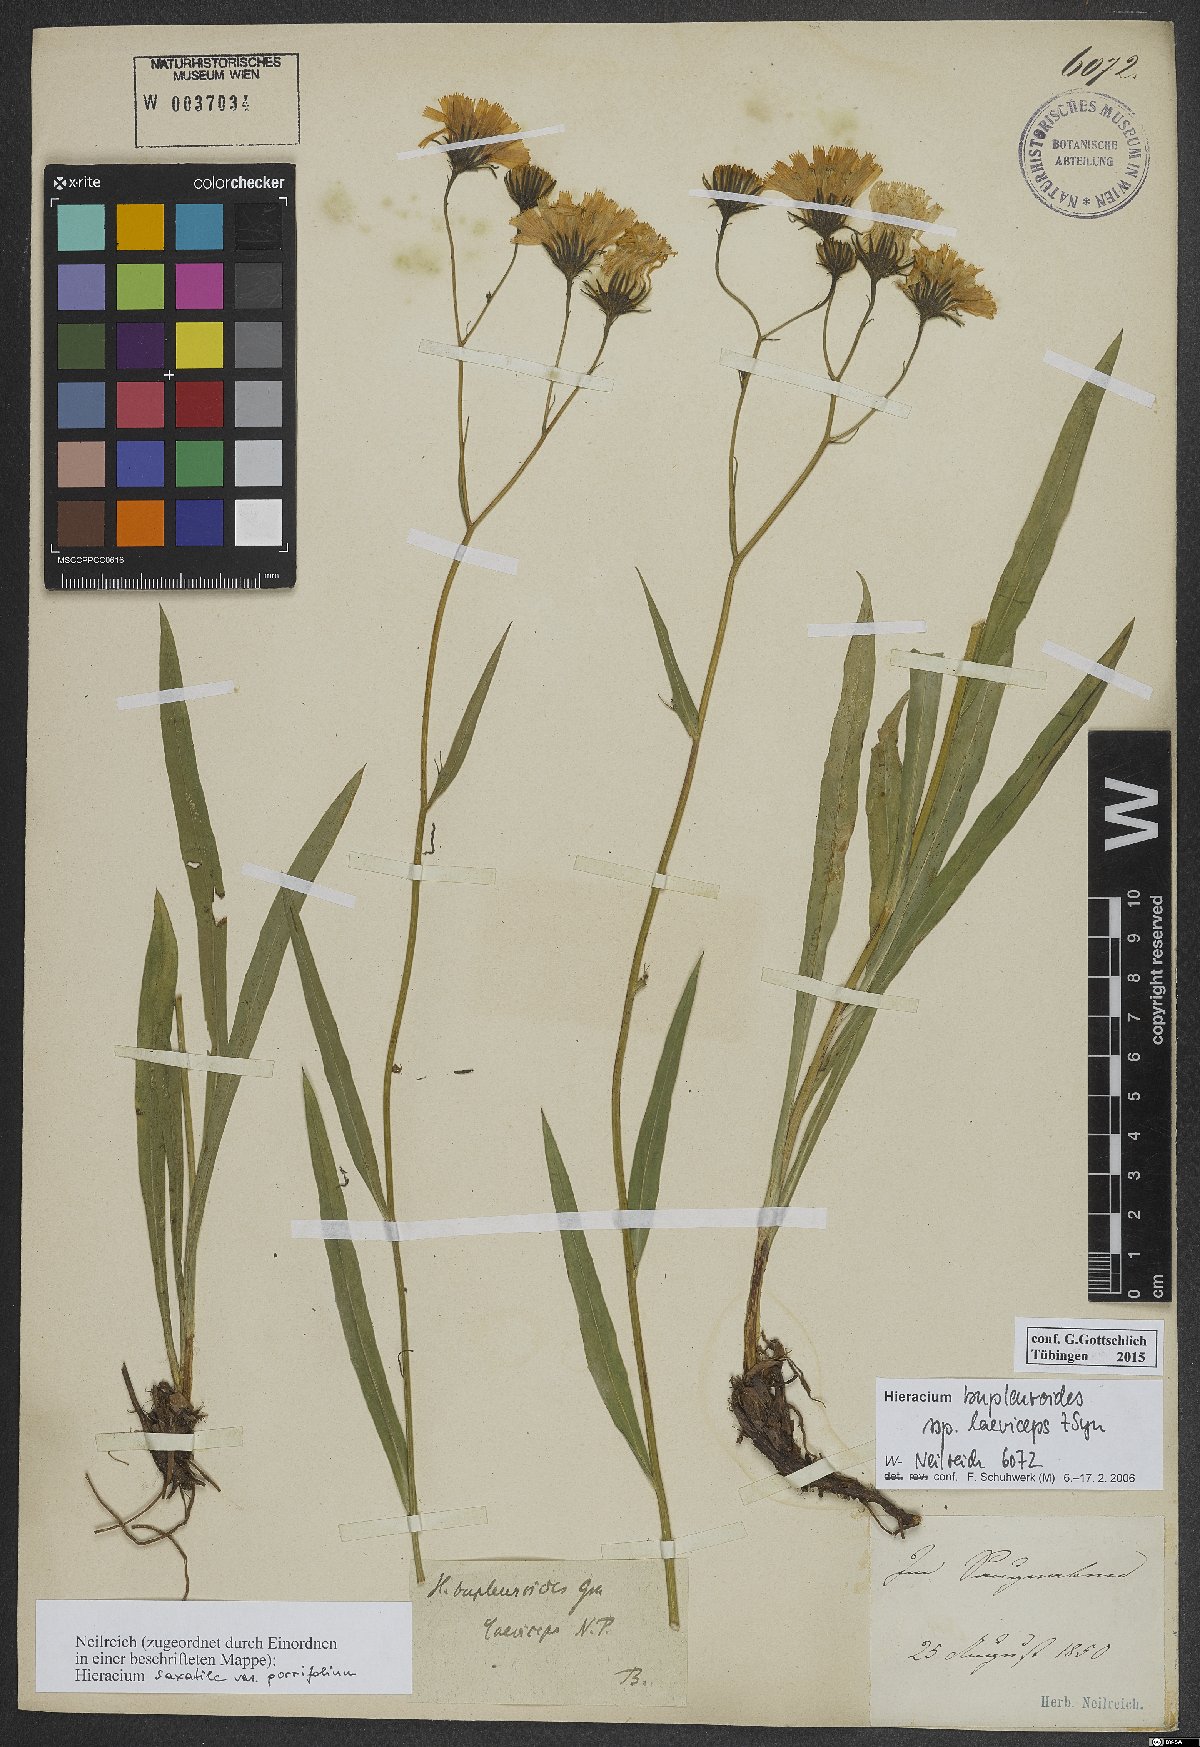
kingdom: Plantae
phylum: Tracheophyta
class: Magnoliopsida
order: Asterales
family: Asteraceae
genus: Hieracium
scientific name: Hieracium bupleuroides
